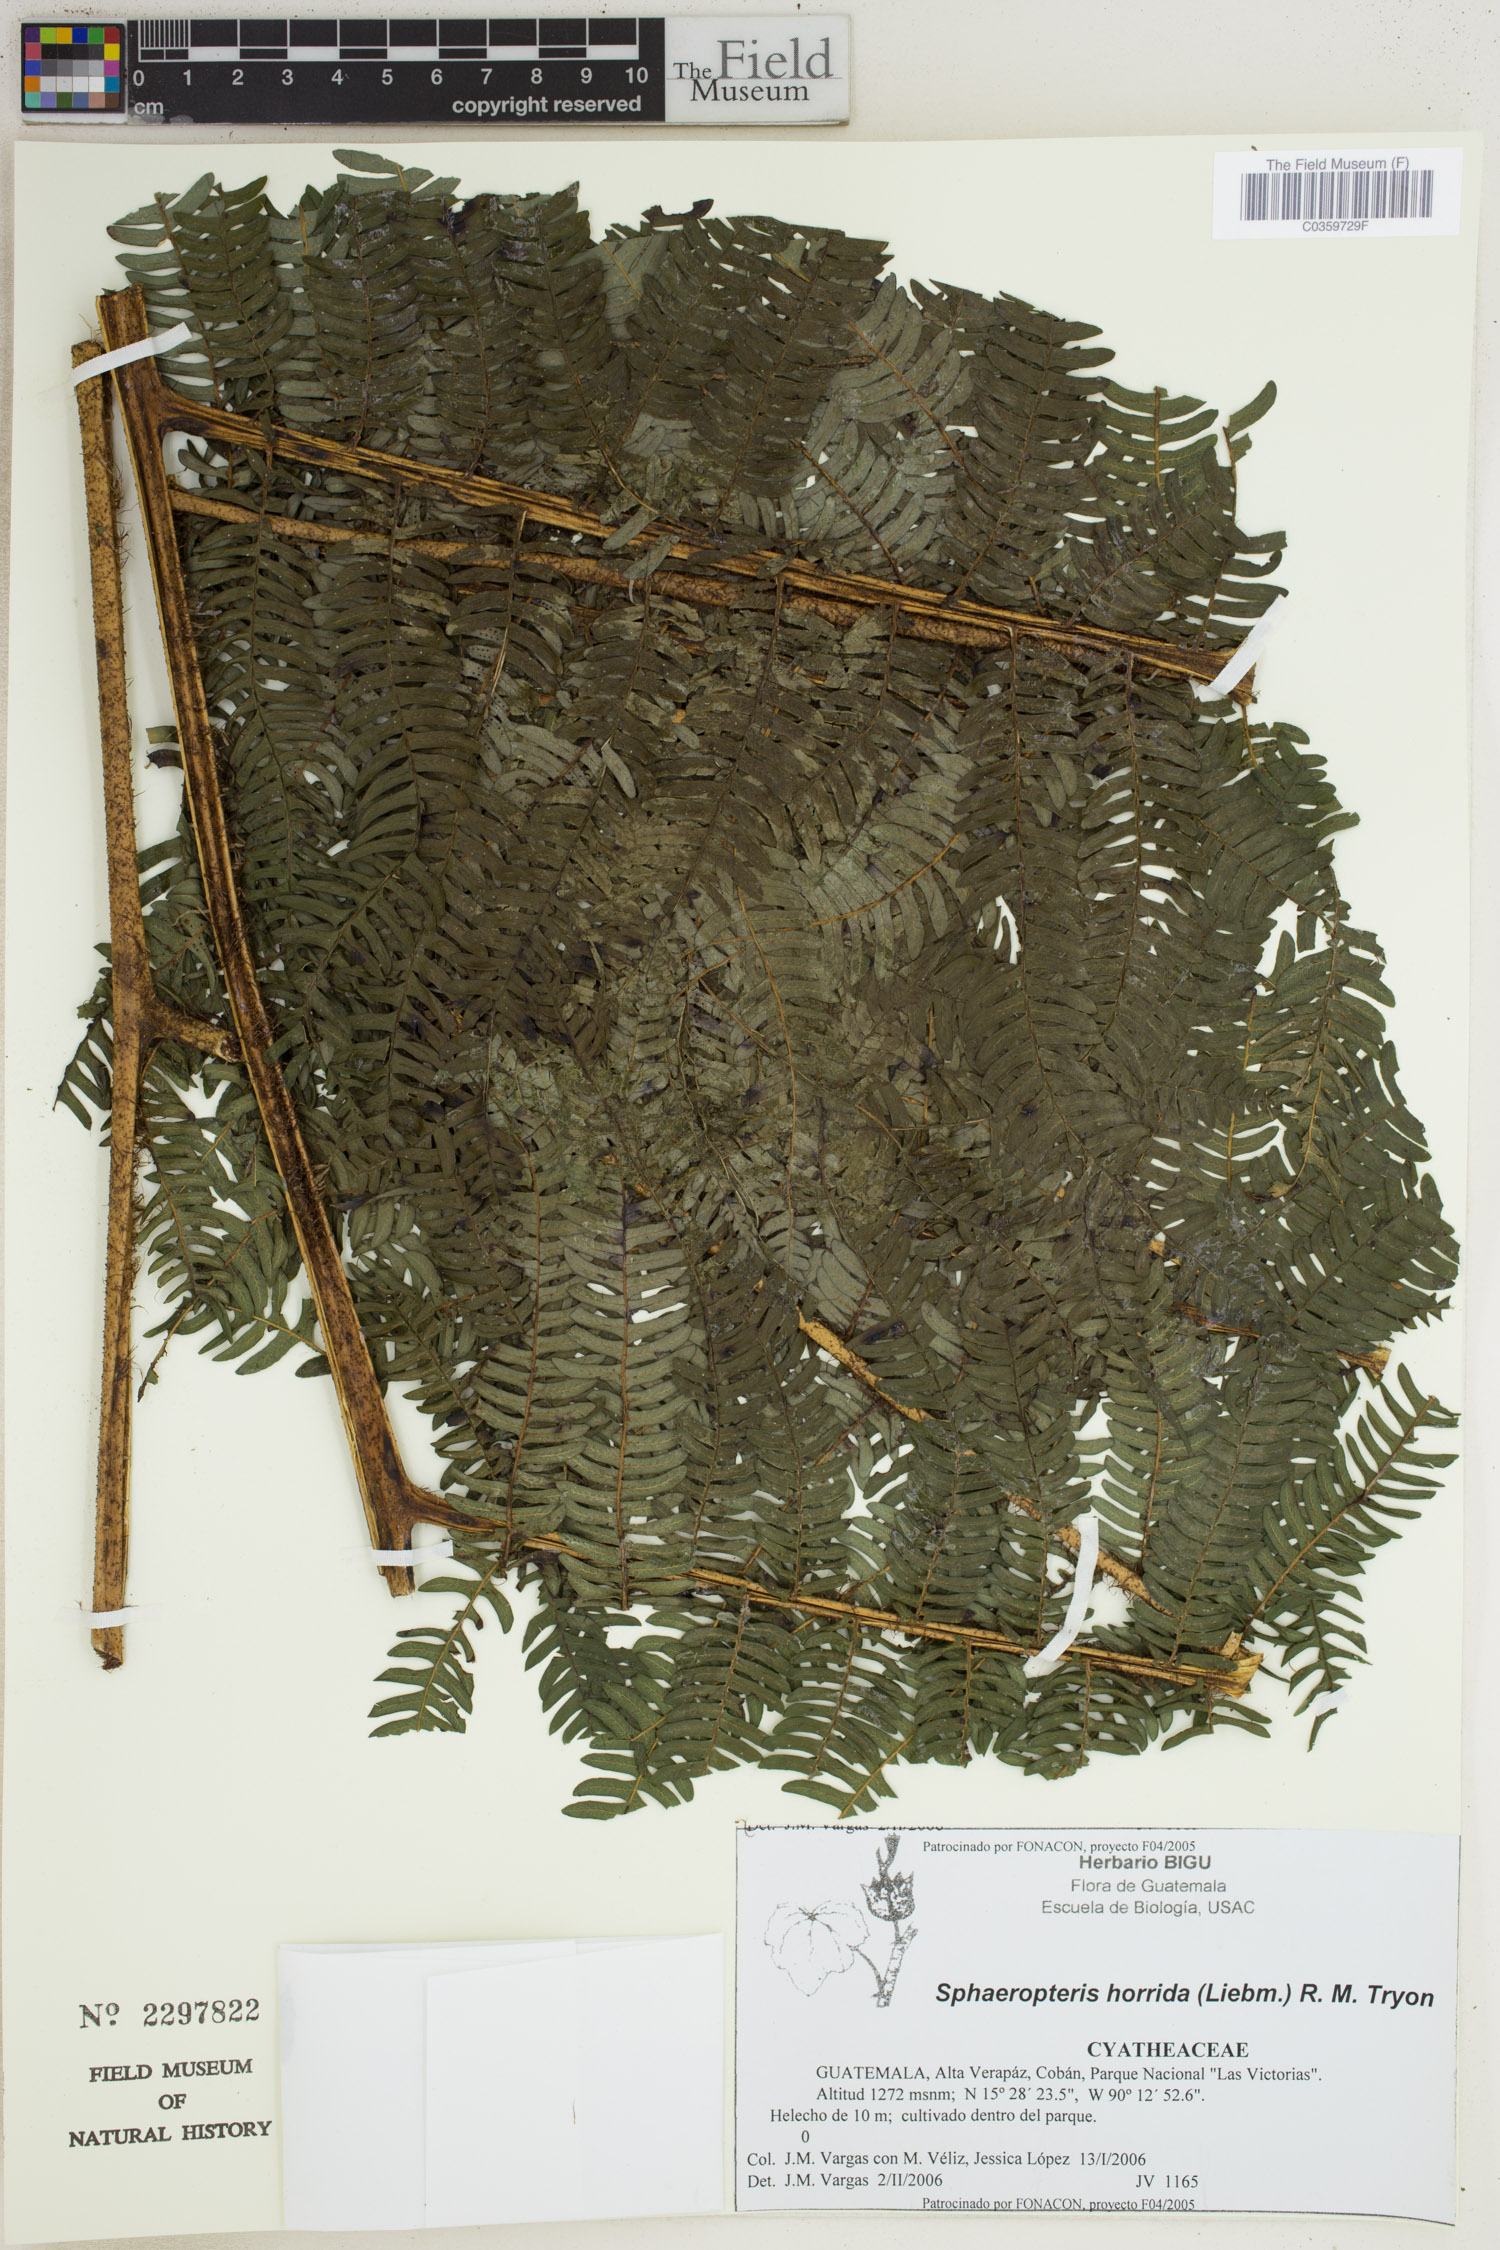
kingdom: Plantae
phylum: Tracheophyta
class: Polypodiopsida
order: Cyatheales
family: Cyatheaceae
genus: Sphaeropteris
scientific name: Sphaeropteris horrida
